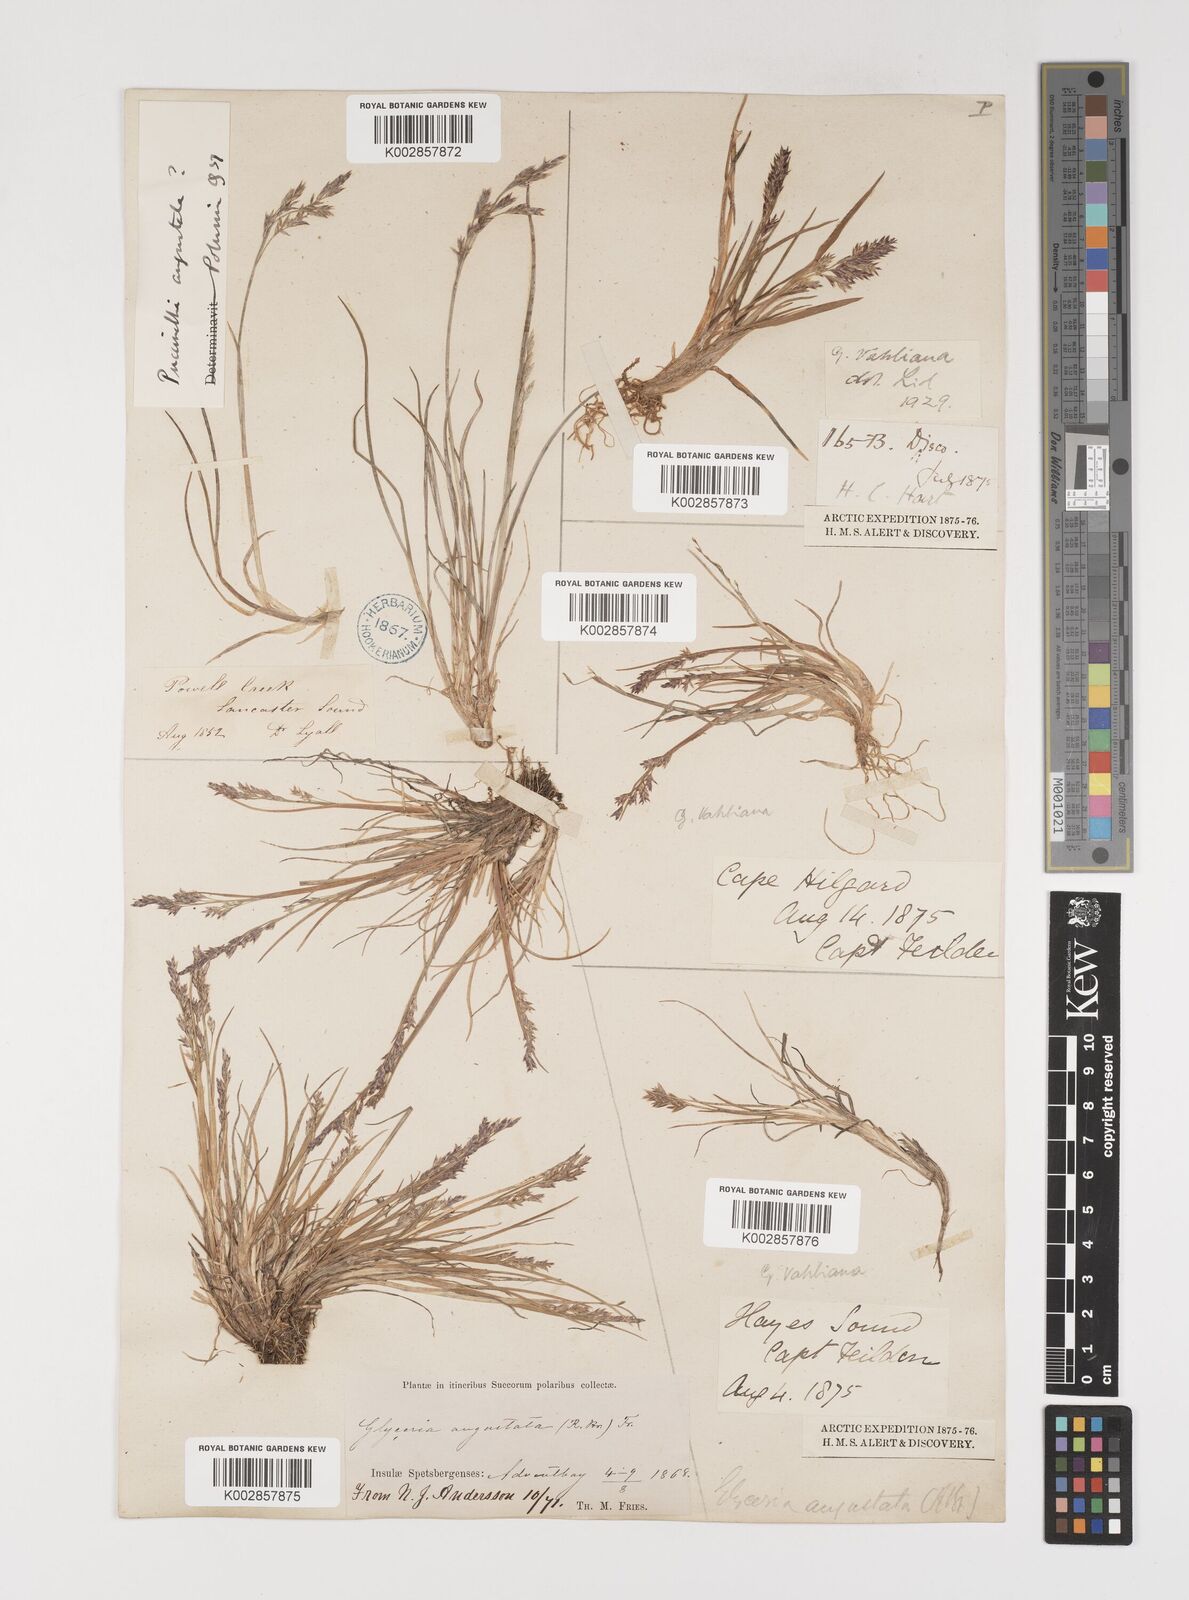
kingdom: Plantae
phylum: Tracheophyta
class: Liliopsida
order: Poales
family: Poaceae
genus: Puccinellia
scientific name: Puccinellia vahliana
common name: Vahl's alkaligrass
